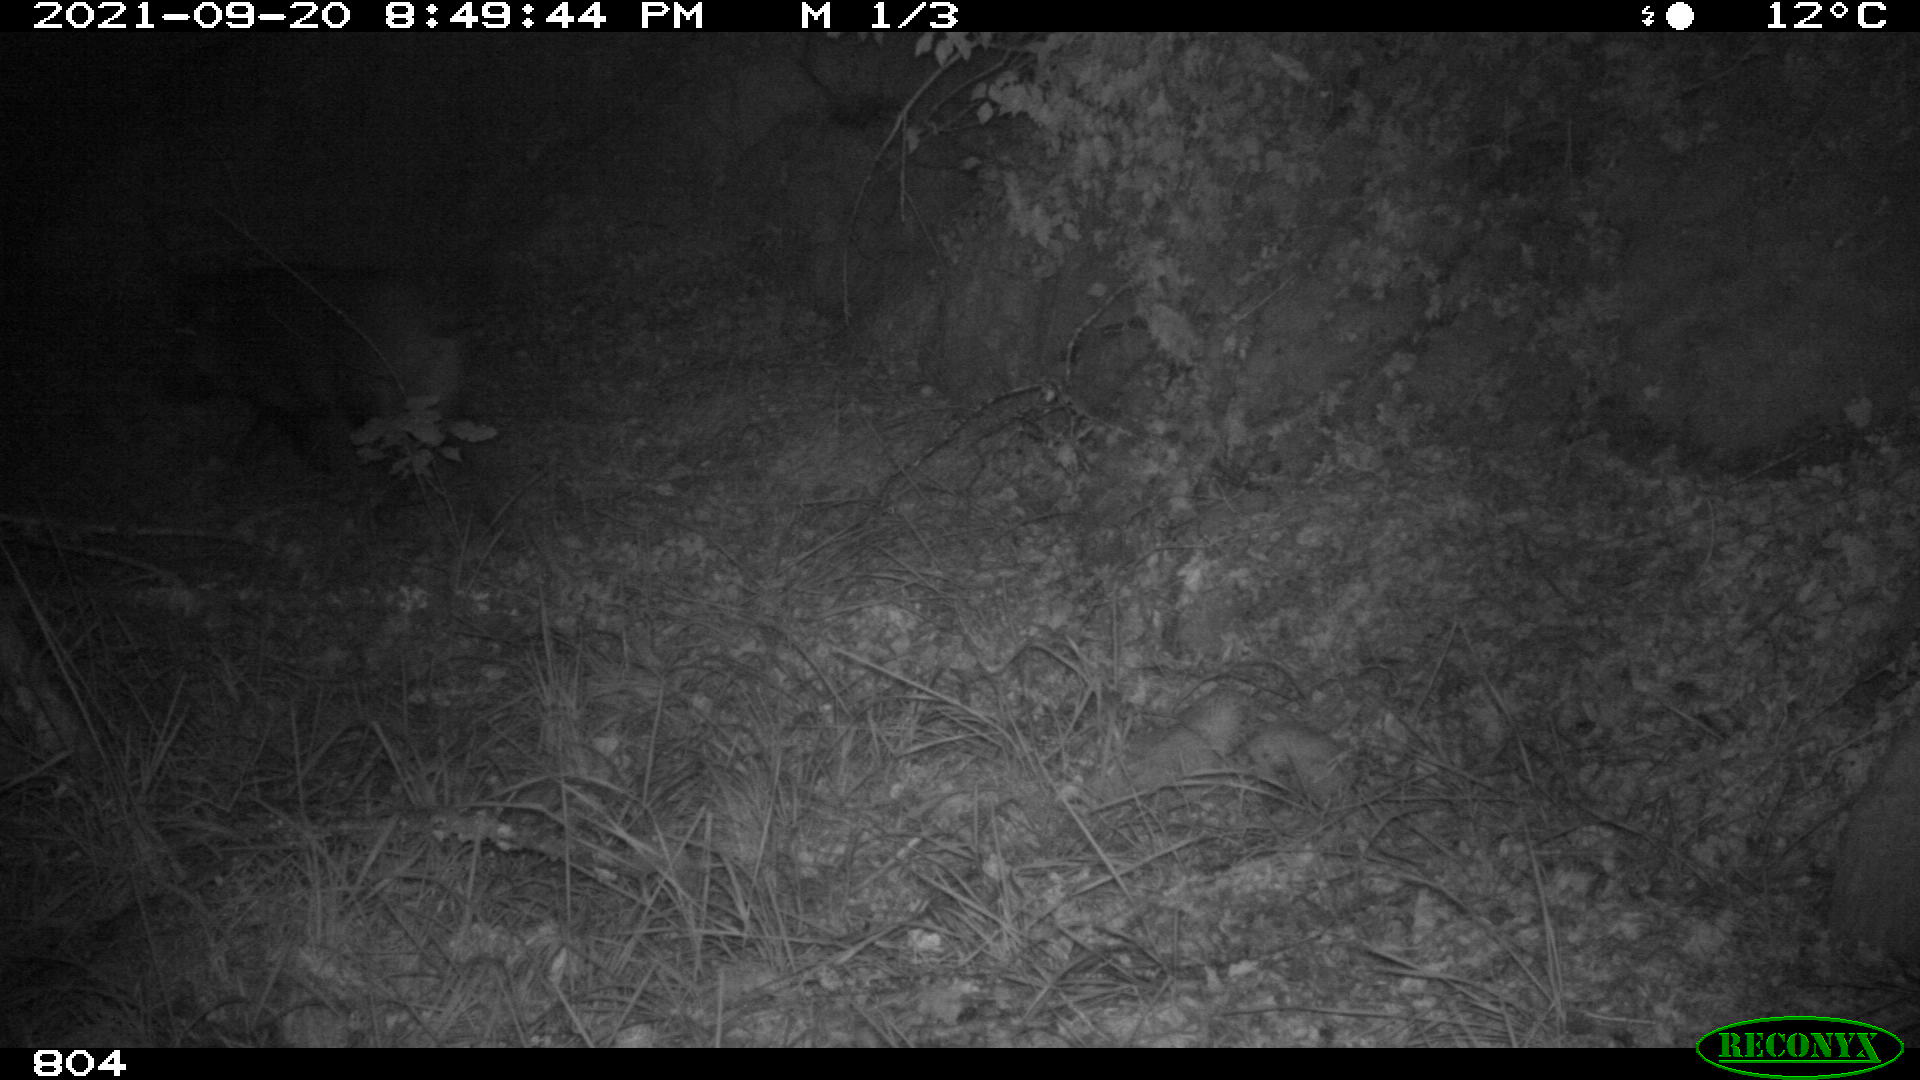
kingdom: Animalia
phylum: Chordata
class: Mammalia
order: Artiodactyla
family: Suidae
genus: Sus
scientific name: Sus scrofa
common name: Wild boar
